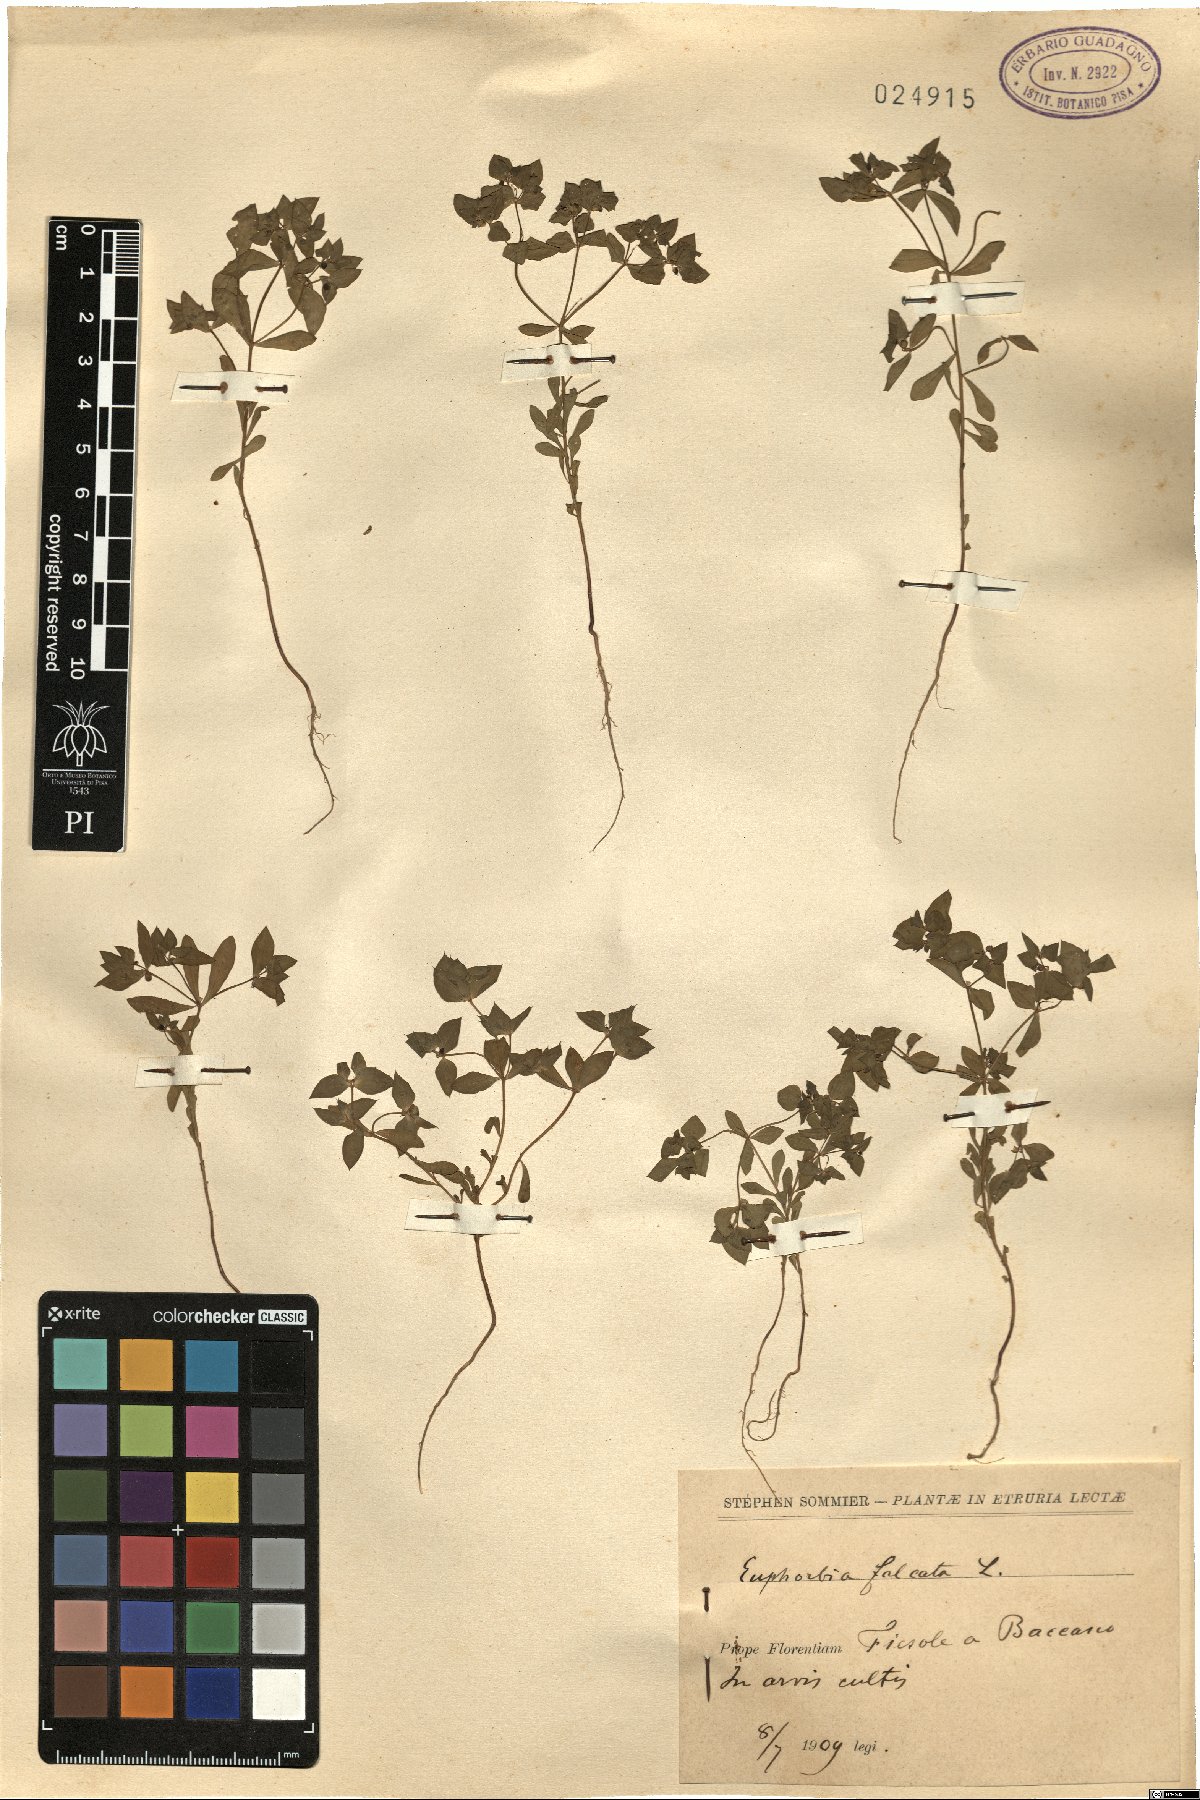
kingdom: Plantae
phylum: Tracheophyta
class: Magnoliopsida
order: Malpighiales
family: Euphorbiaceae
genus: Euphorbia
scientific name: Euphorbia falcata
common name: Sickle spurge
